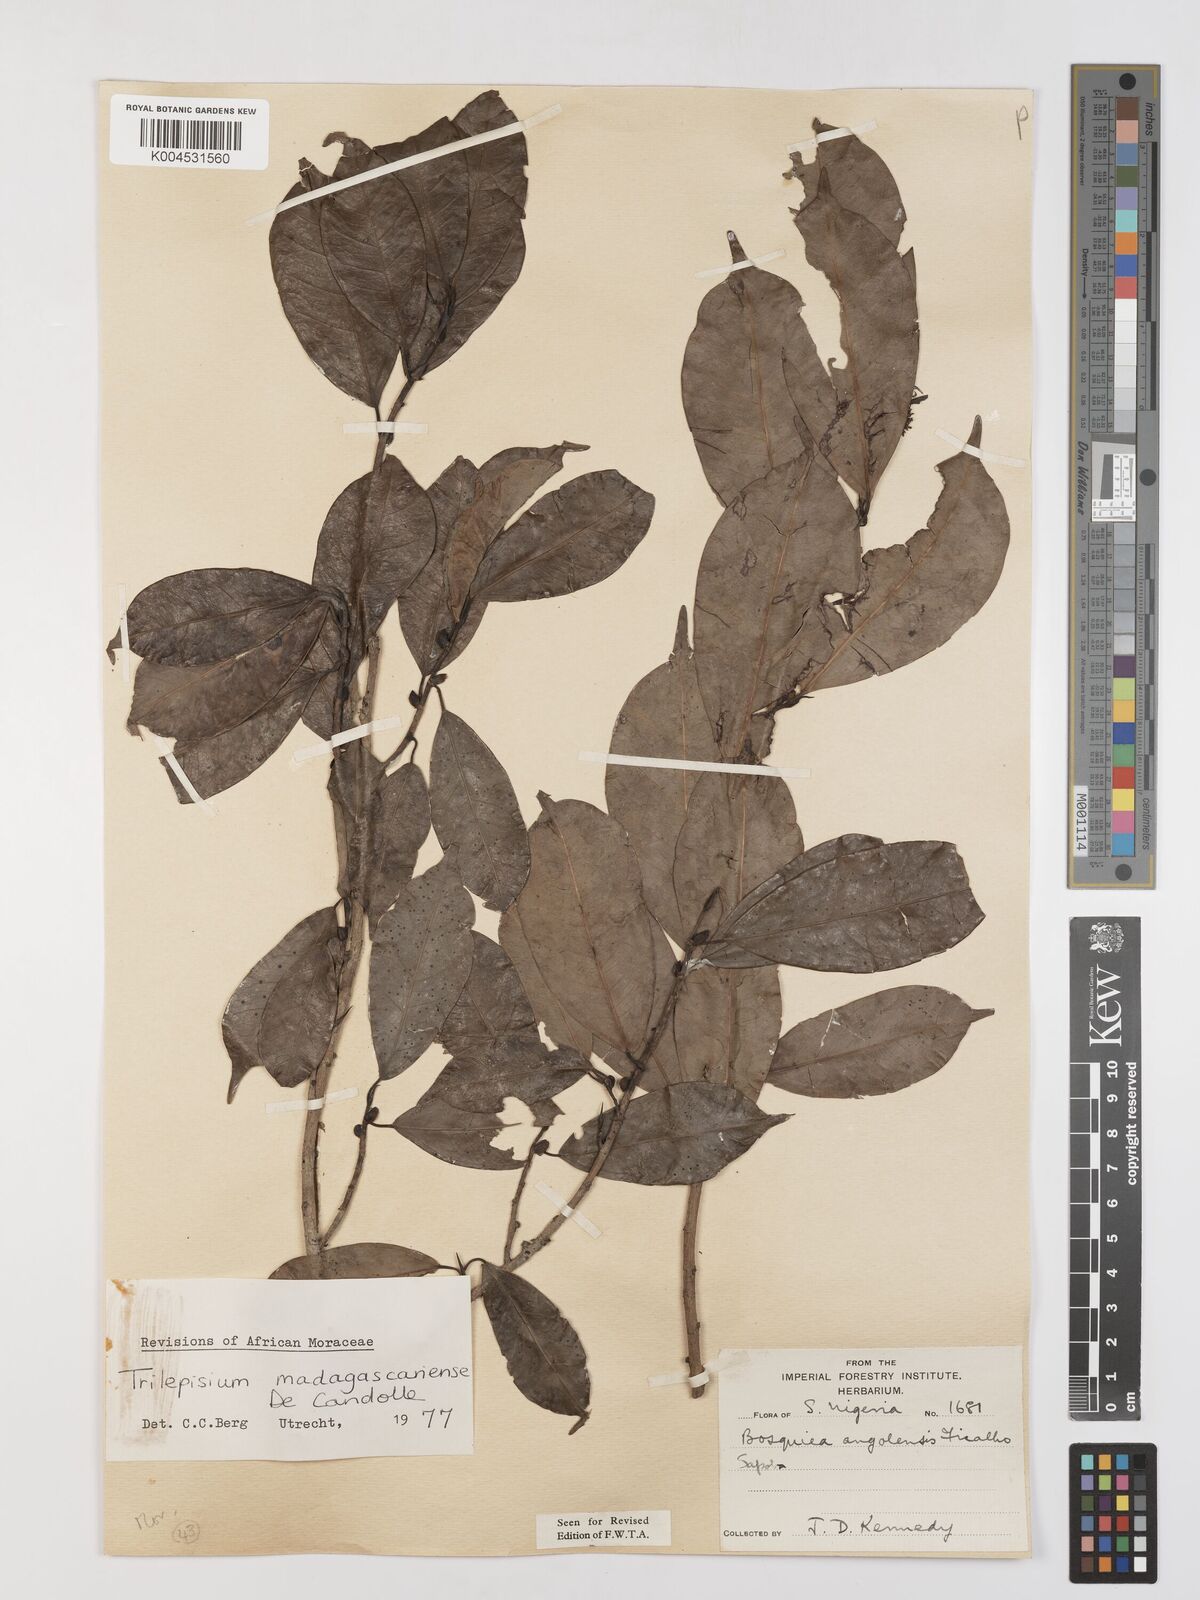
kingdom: Plantae
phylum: Tracheophyta
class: Magnoliopsida
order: Rosales
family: Moraceae
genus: Trilepisium
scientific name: Trilepisium madagascariense
